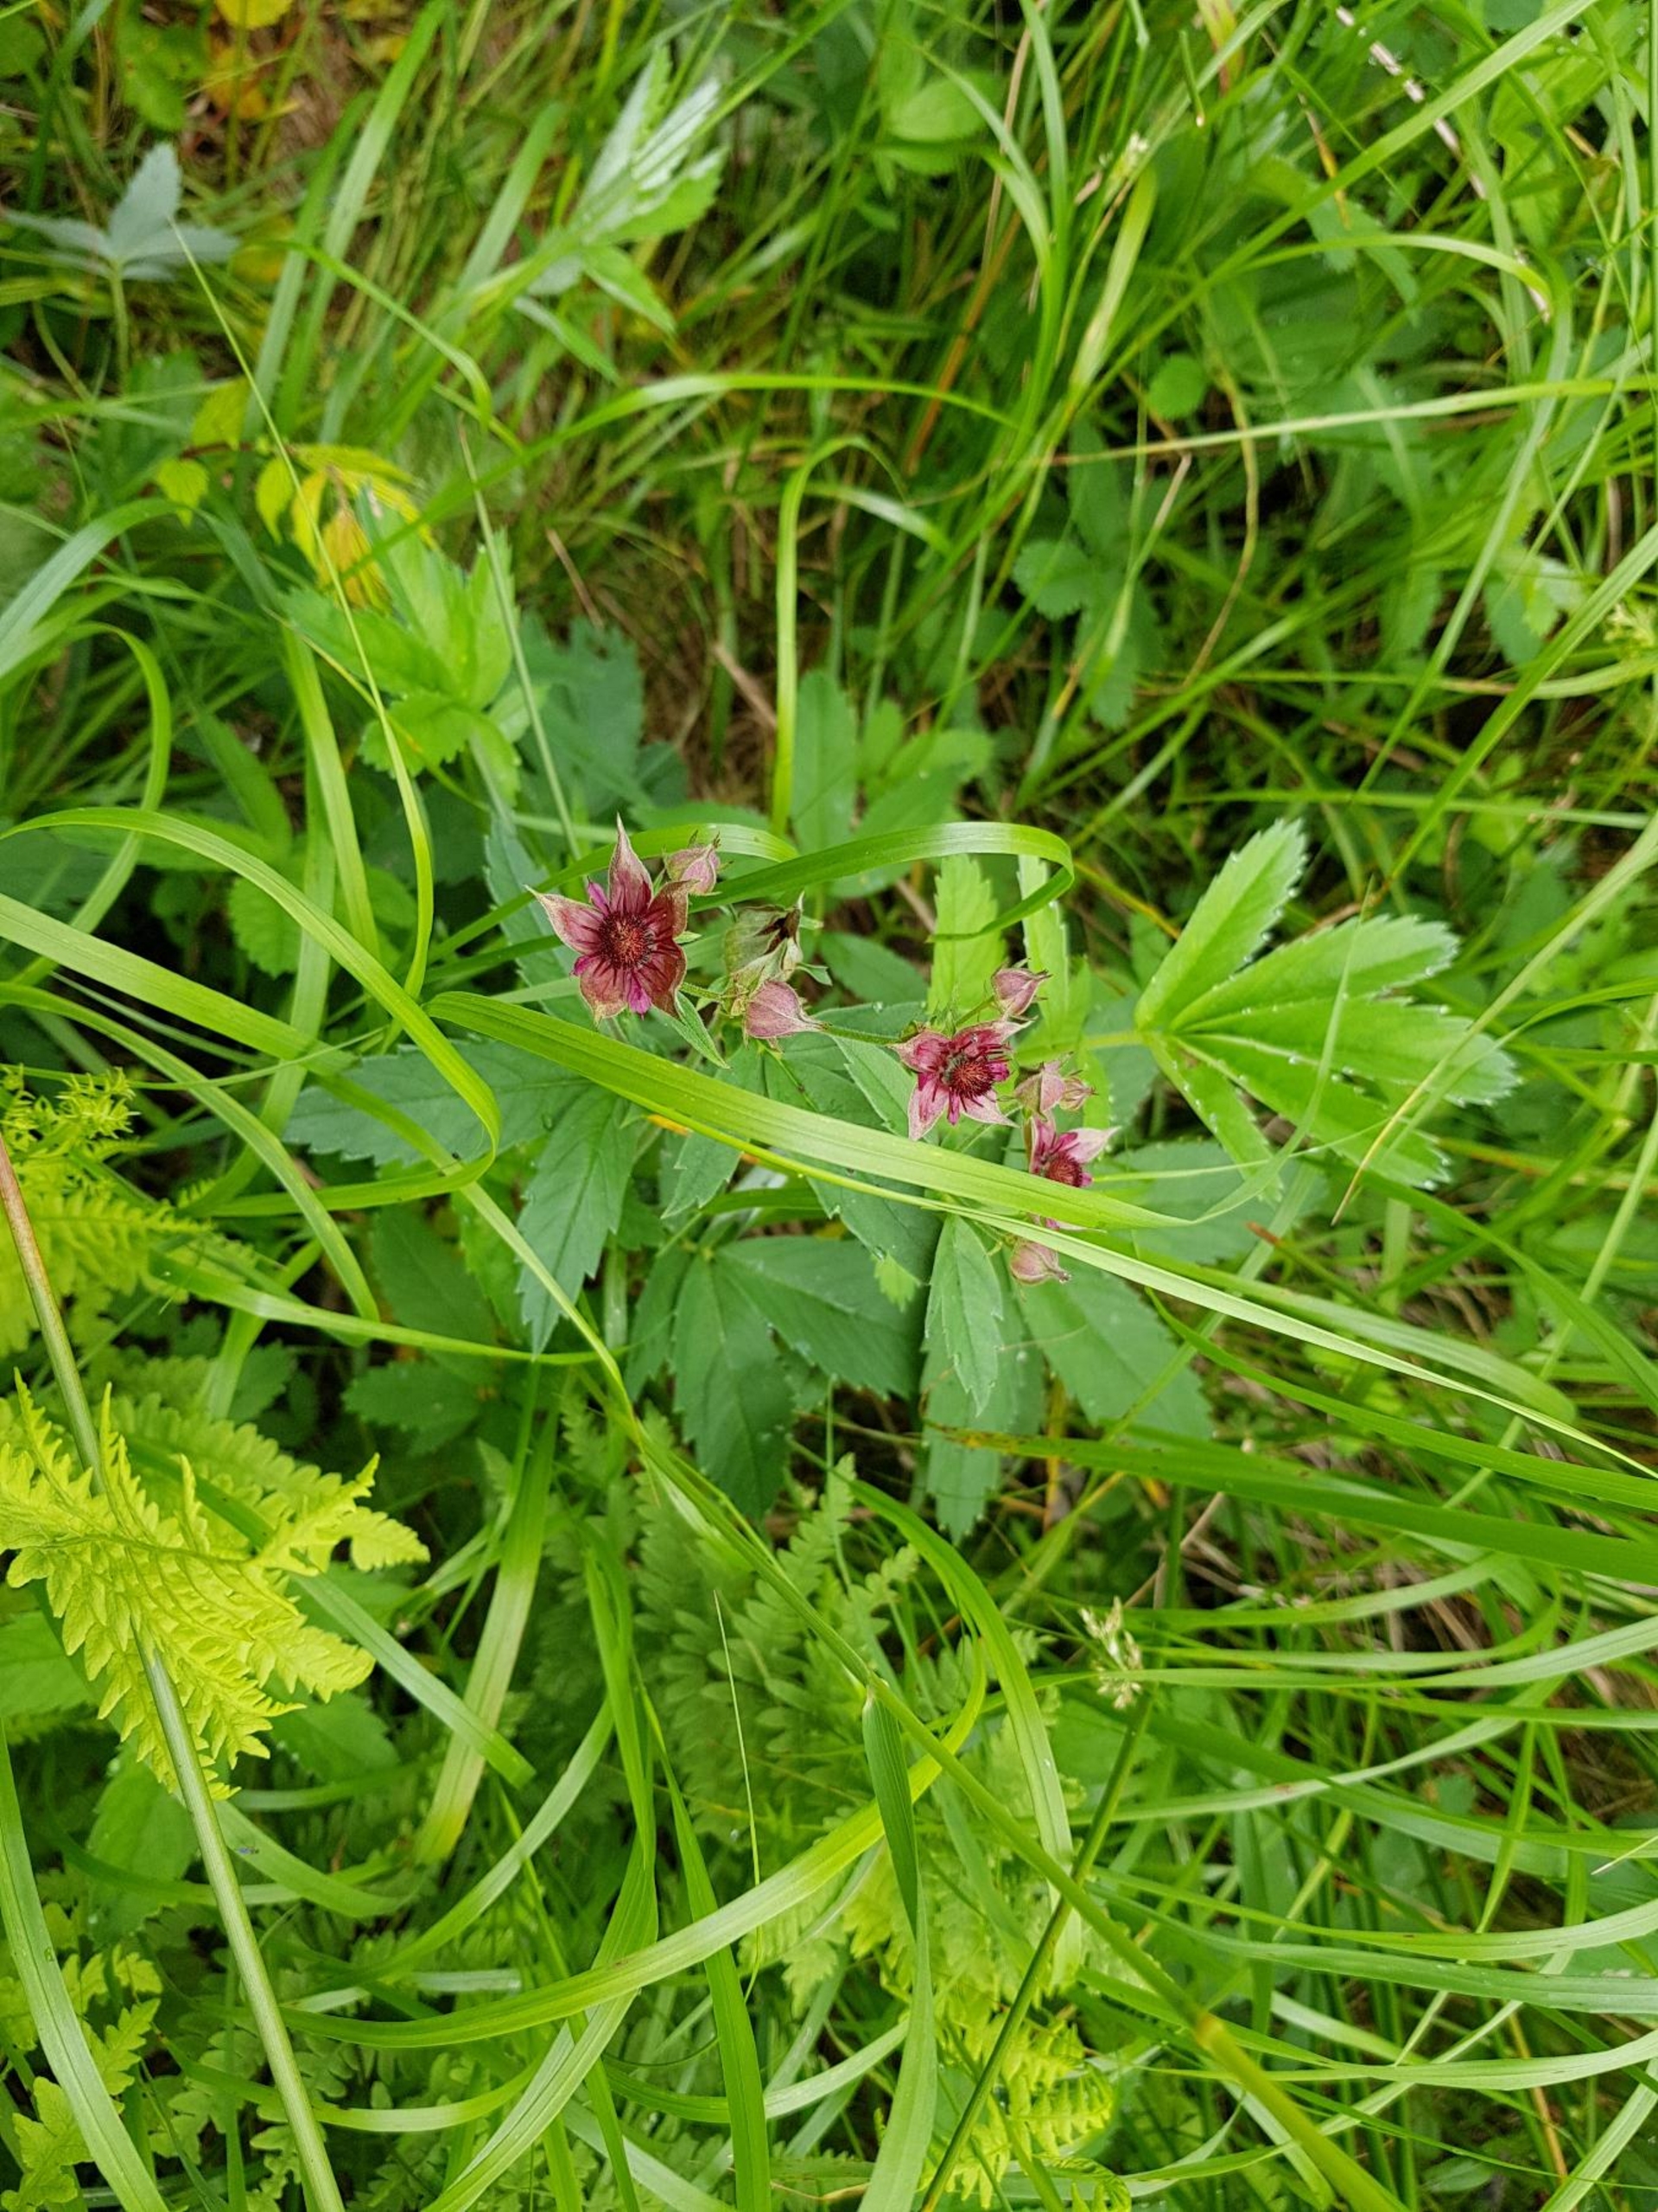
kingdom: Plantae
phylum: Tracheophyta
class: Magnoliopsida
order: Rosales
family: Rosaceae
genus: Comarum
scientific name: Comarum palustre
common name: Kragefod
